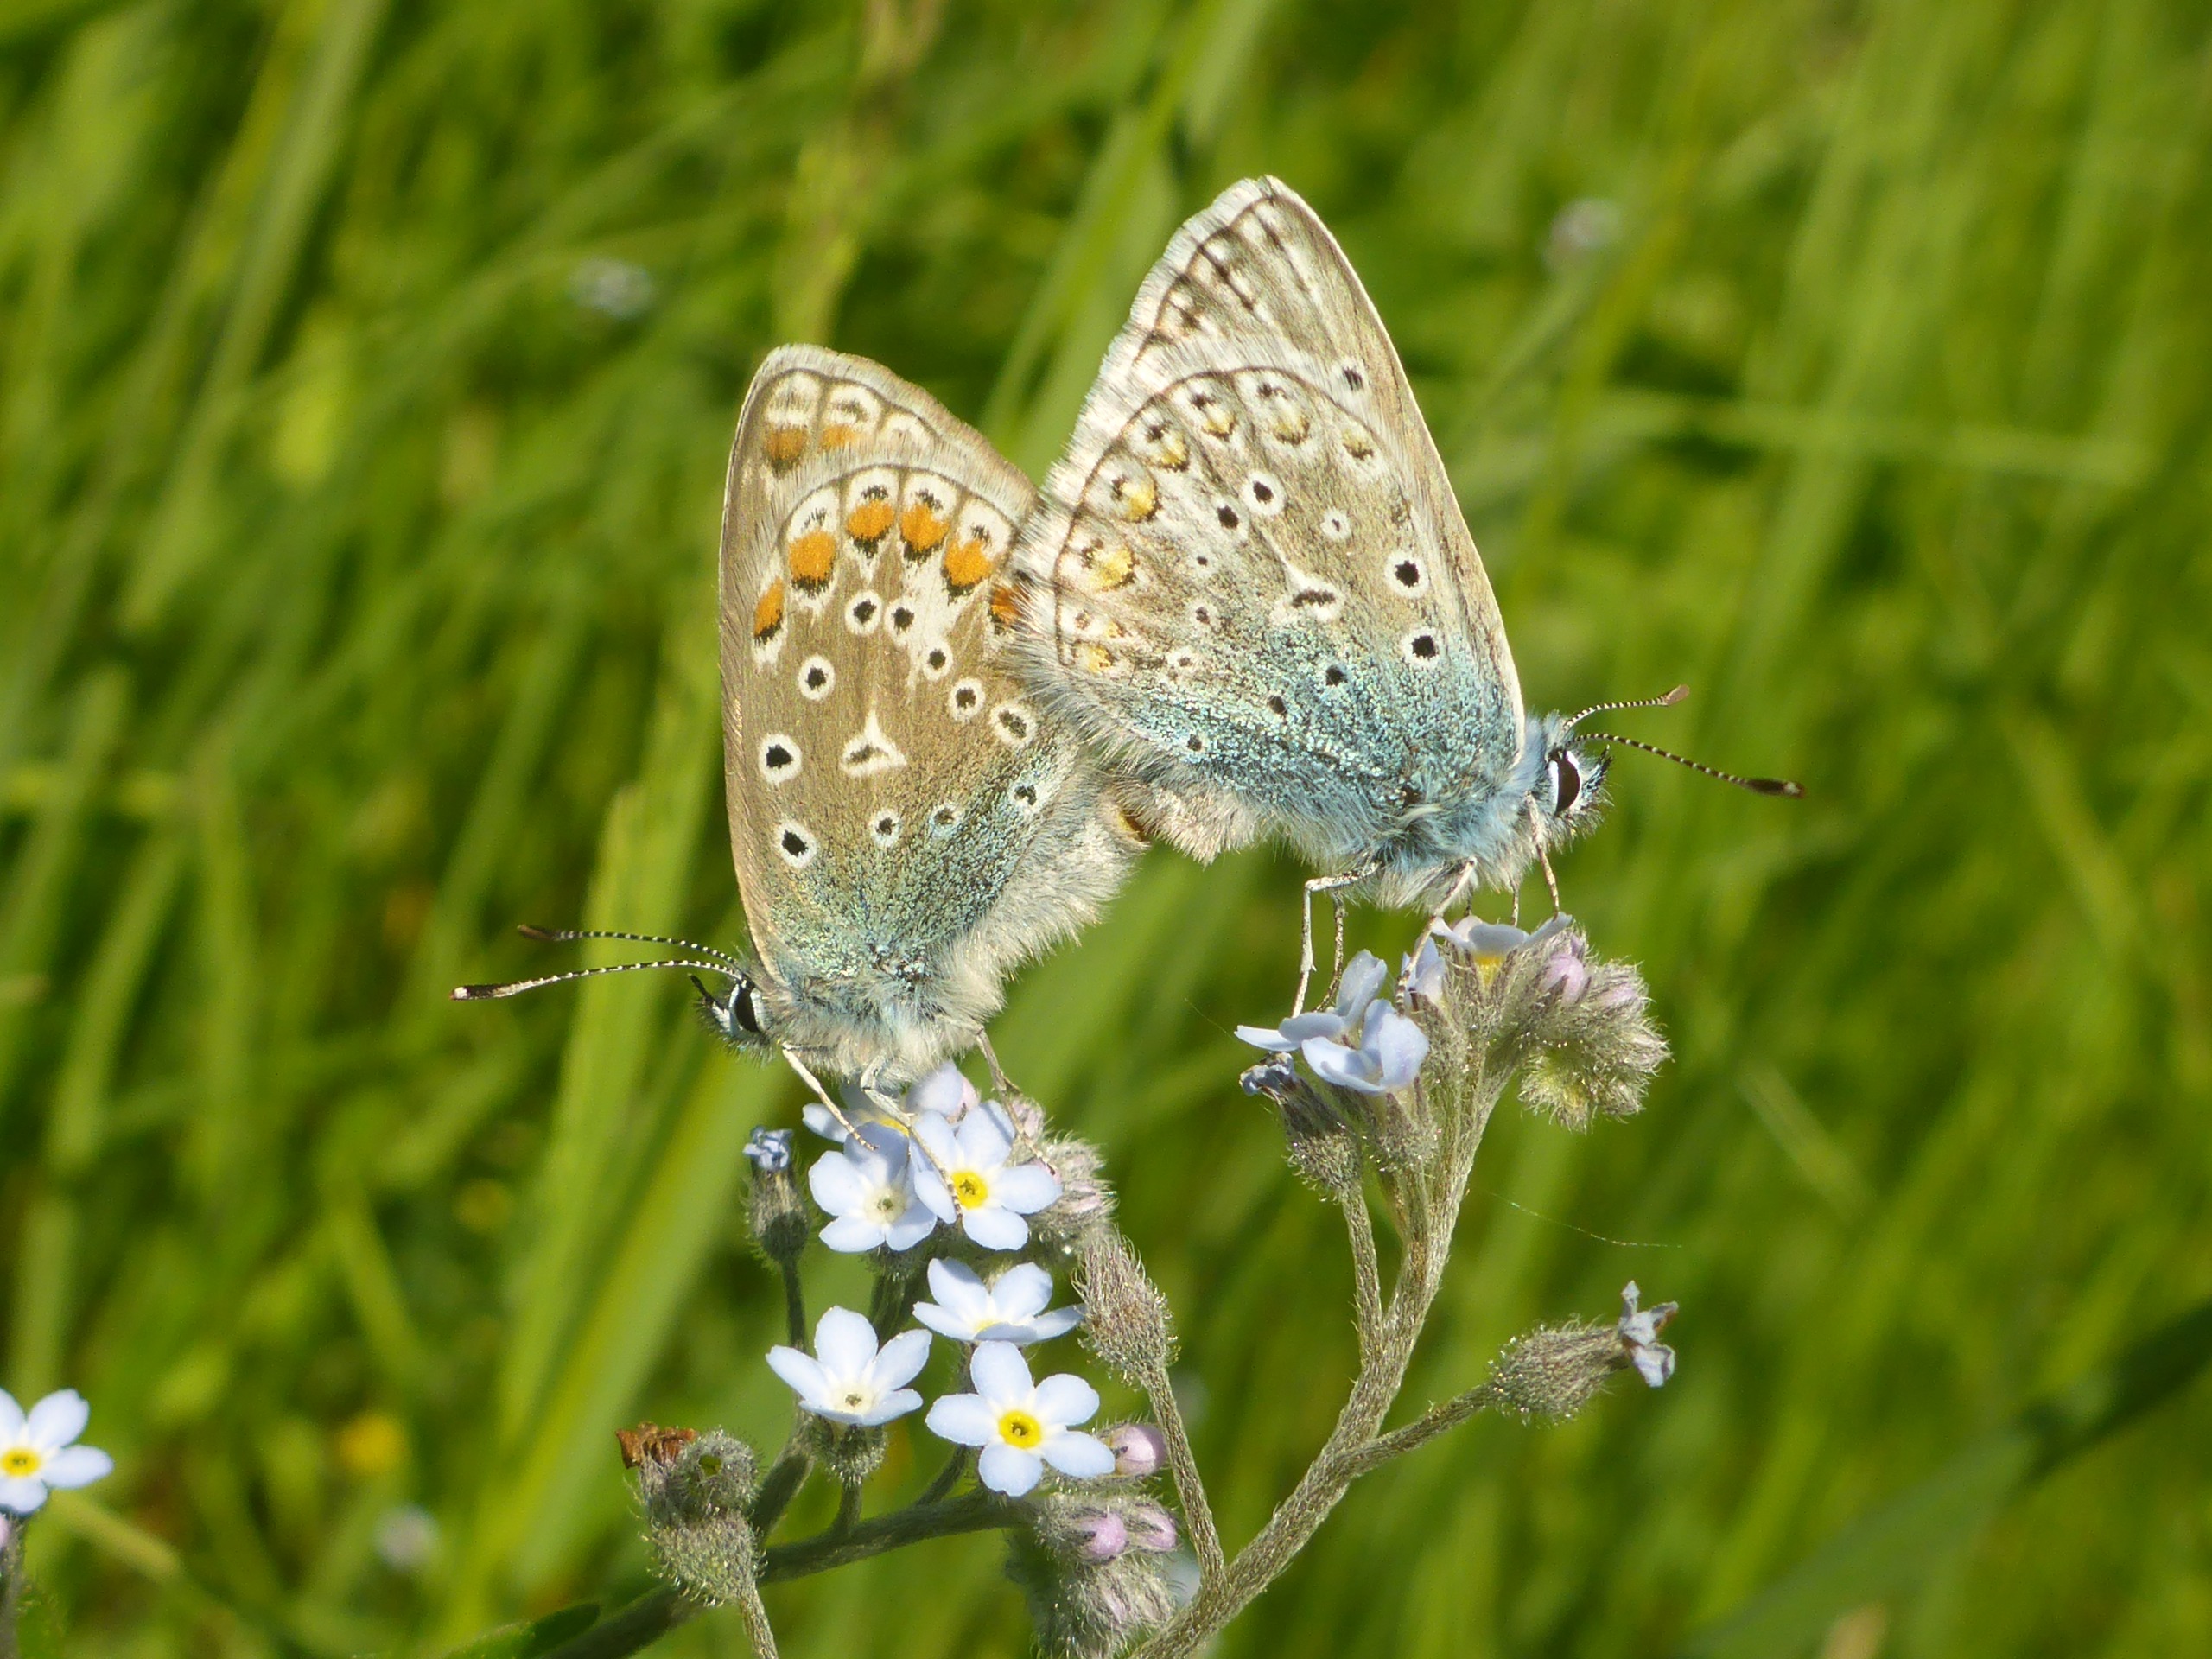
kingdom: Animalia
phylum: Arthropoda
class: Insecta
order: Lepidoptera
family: Lycaenidae
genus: Polyommatus
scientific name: Polyommatus icarus
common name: Almindelig blåfugl
